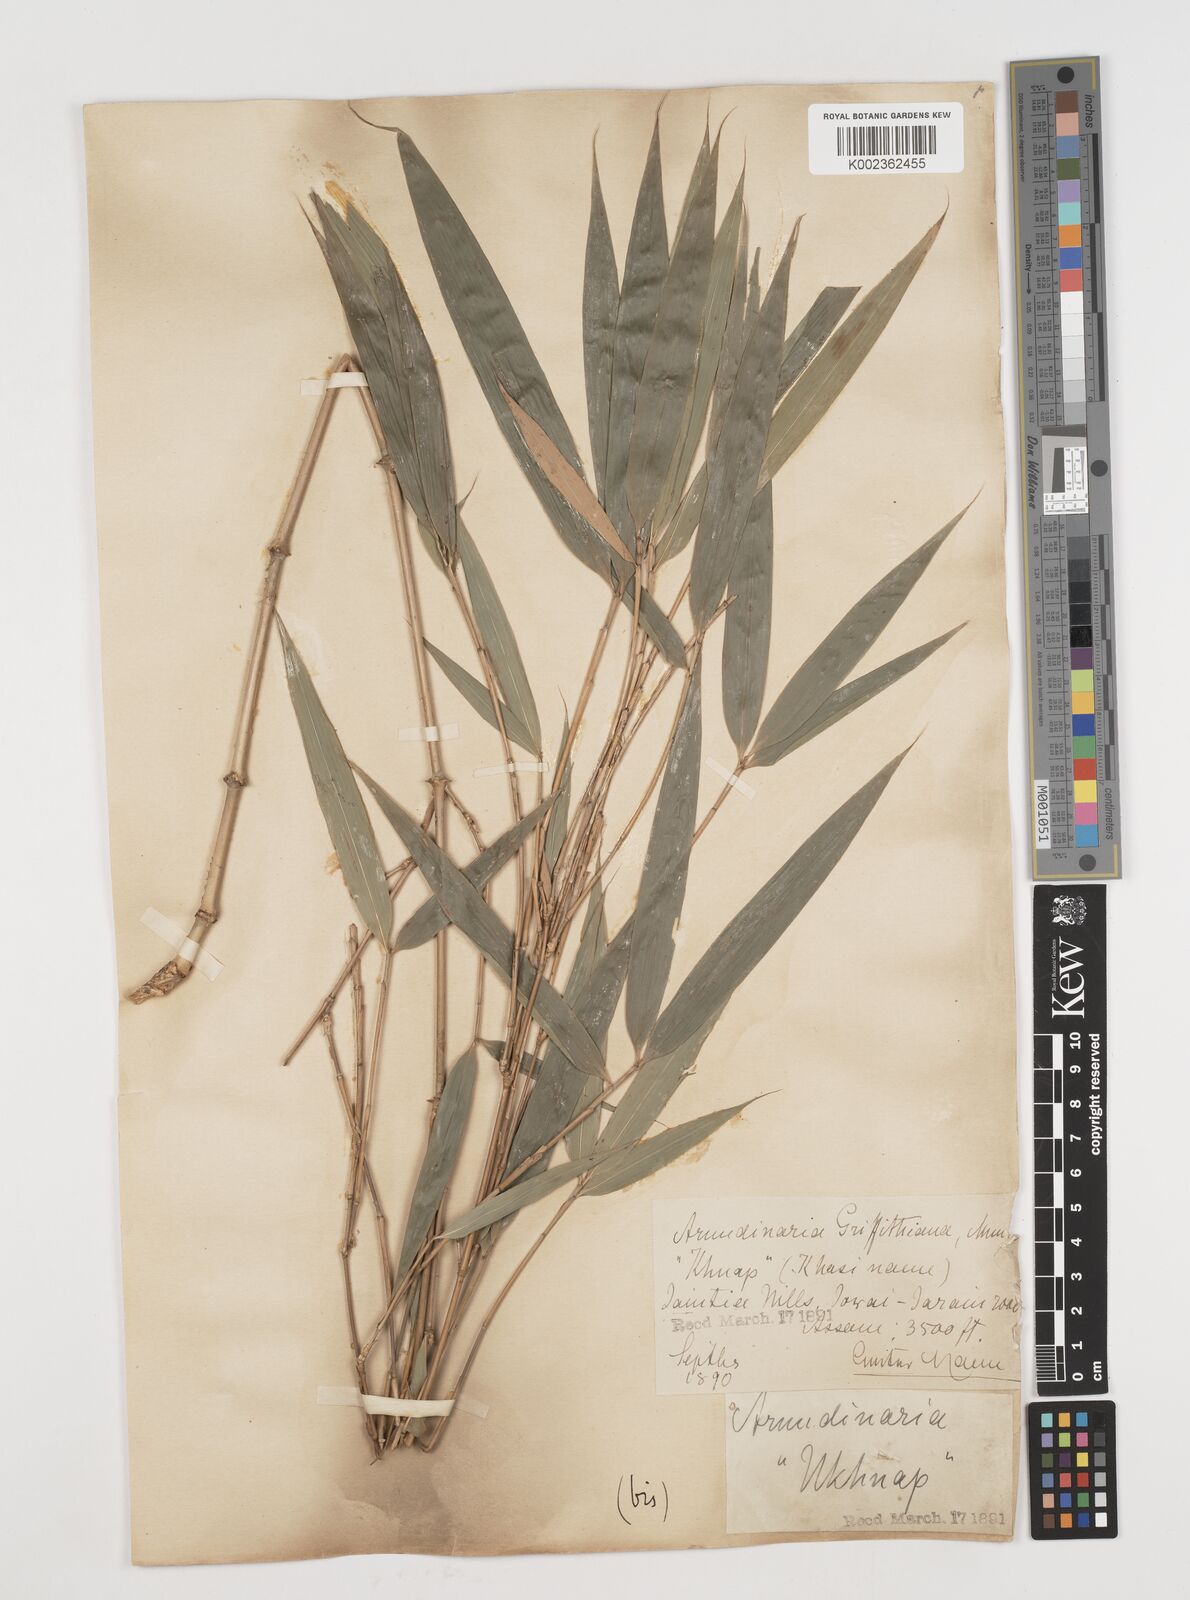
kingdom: Plantae
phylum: Tracheophyta
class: Liliopsida
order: Poales
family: Poaceae
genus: Chimonocalamus
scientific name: Chimonocalamus griffithianus
